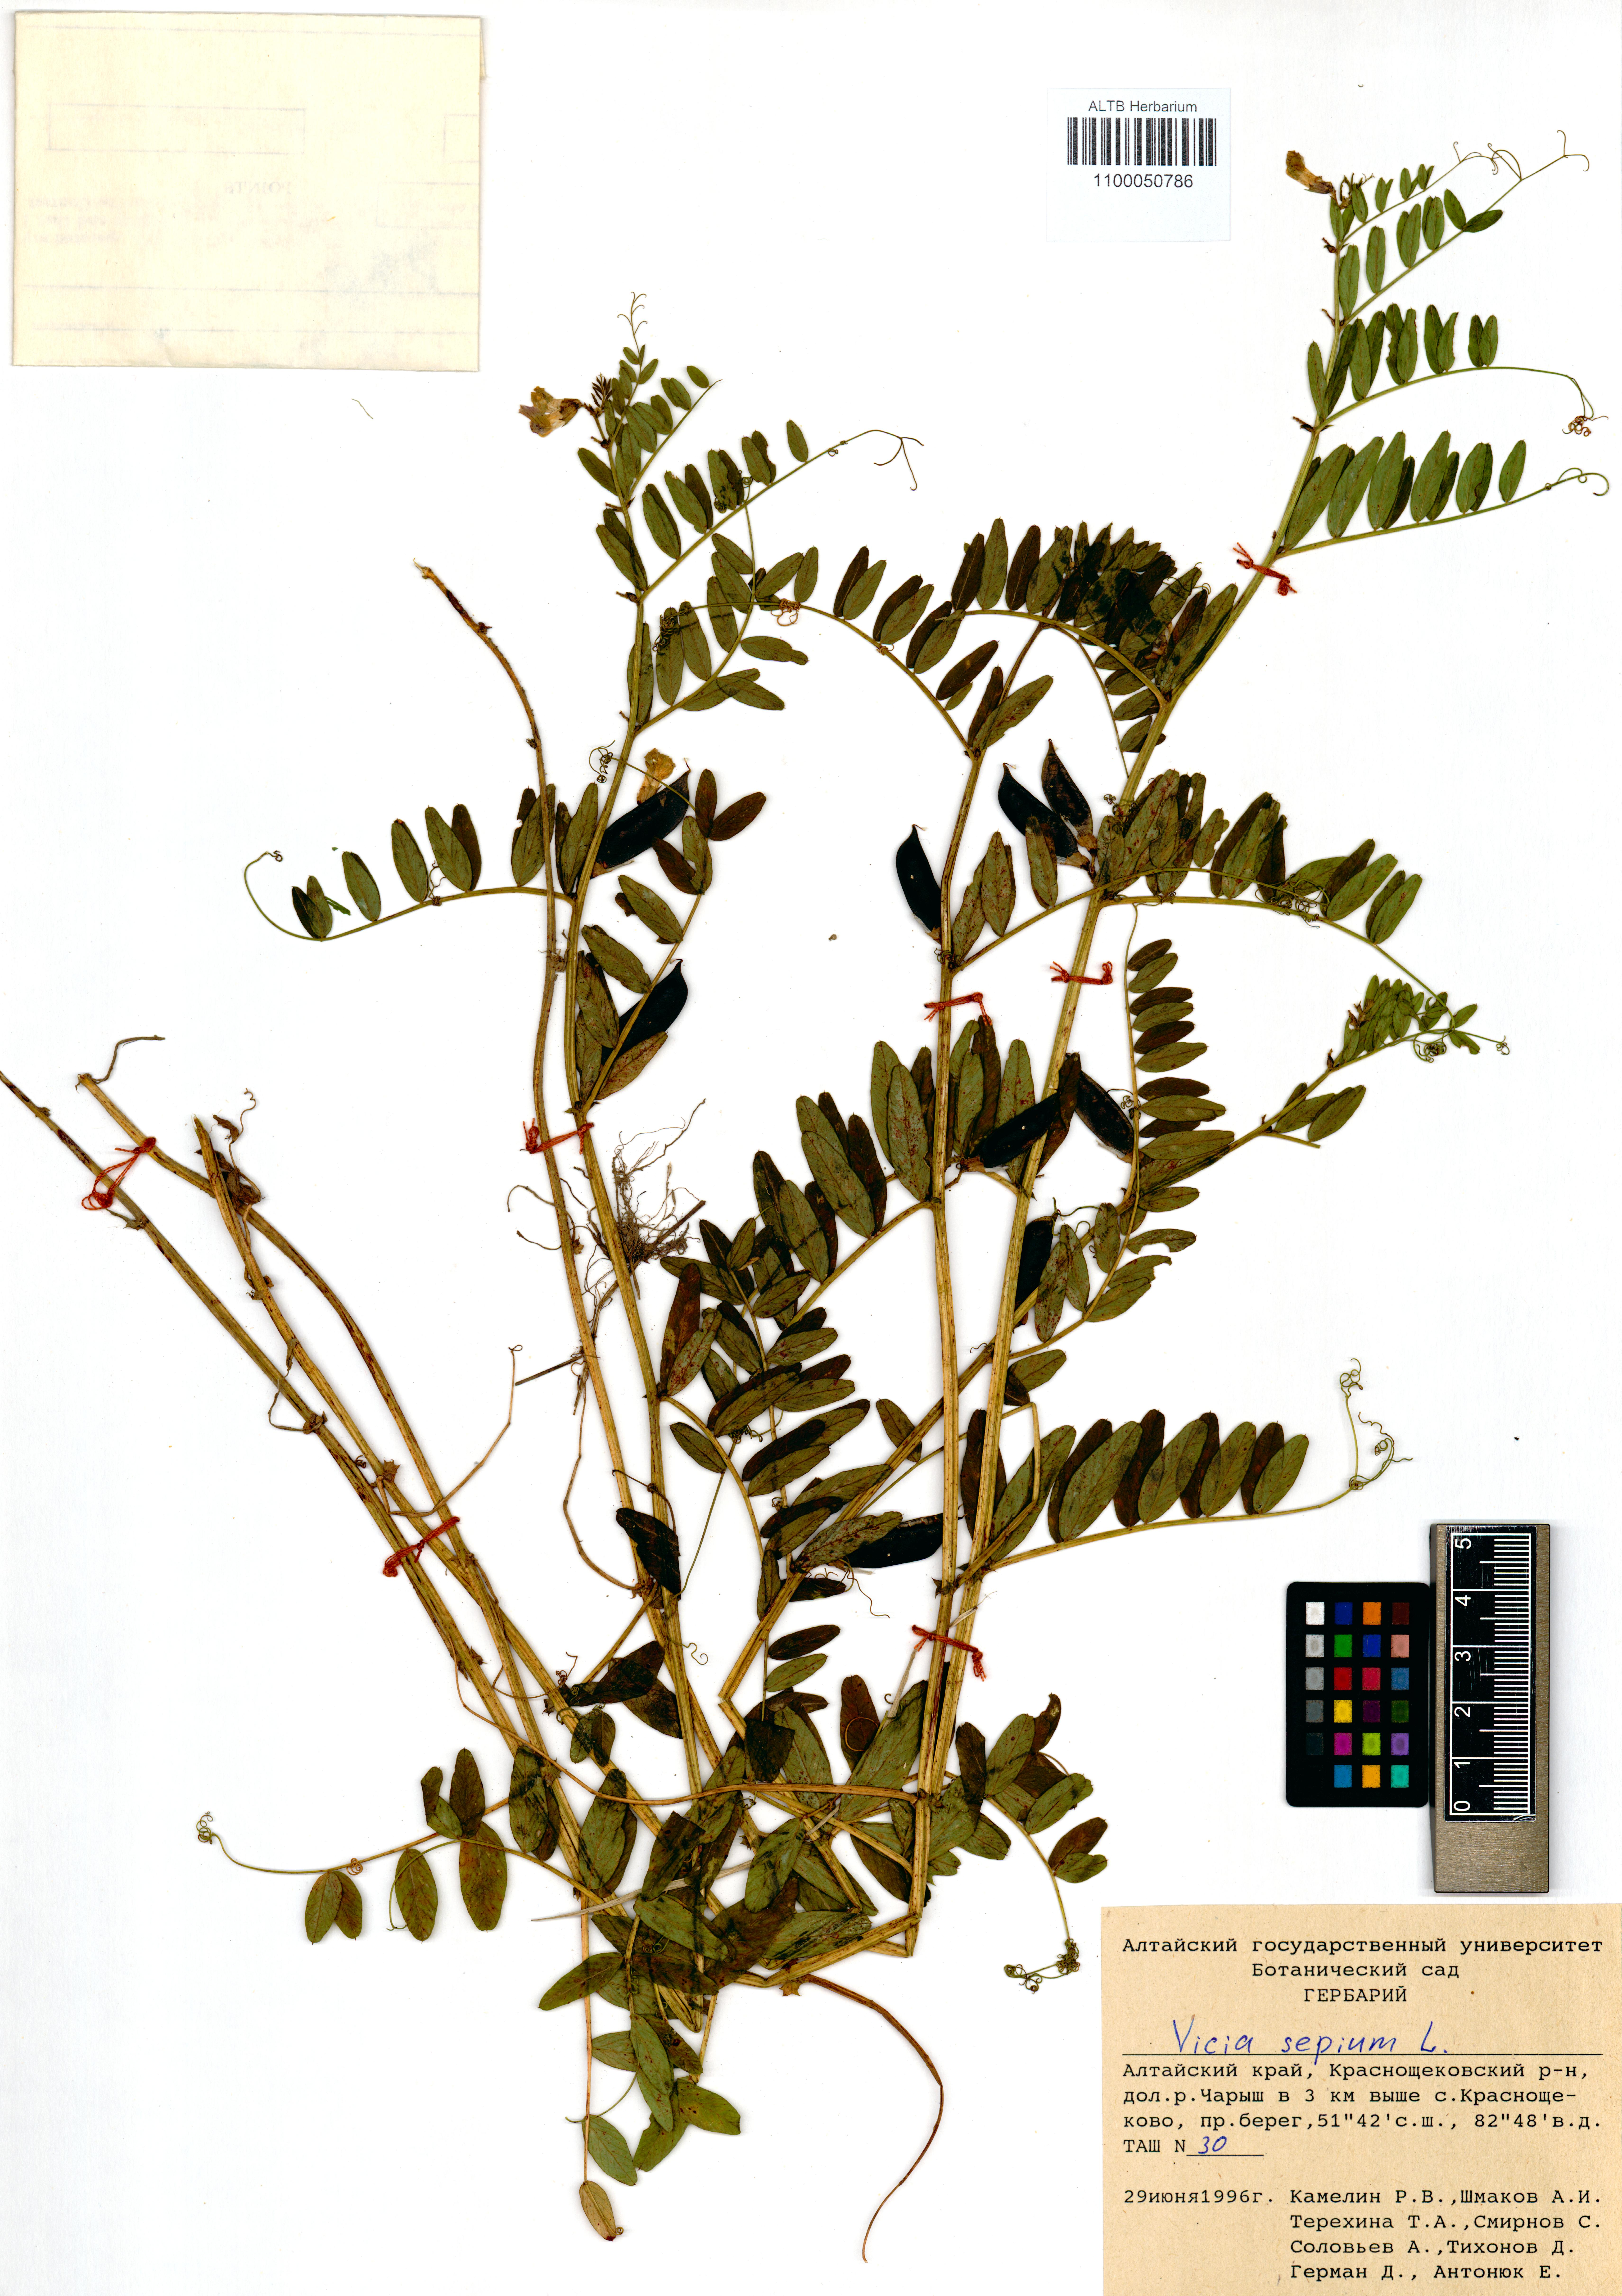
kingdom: Plantae
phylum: Tracheophyta
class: Magnoliopsida
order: Fabales
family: Fabaceae
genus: Vicia
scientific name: Vicia sepium
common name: Bush vetch
